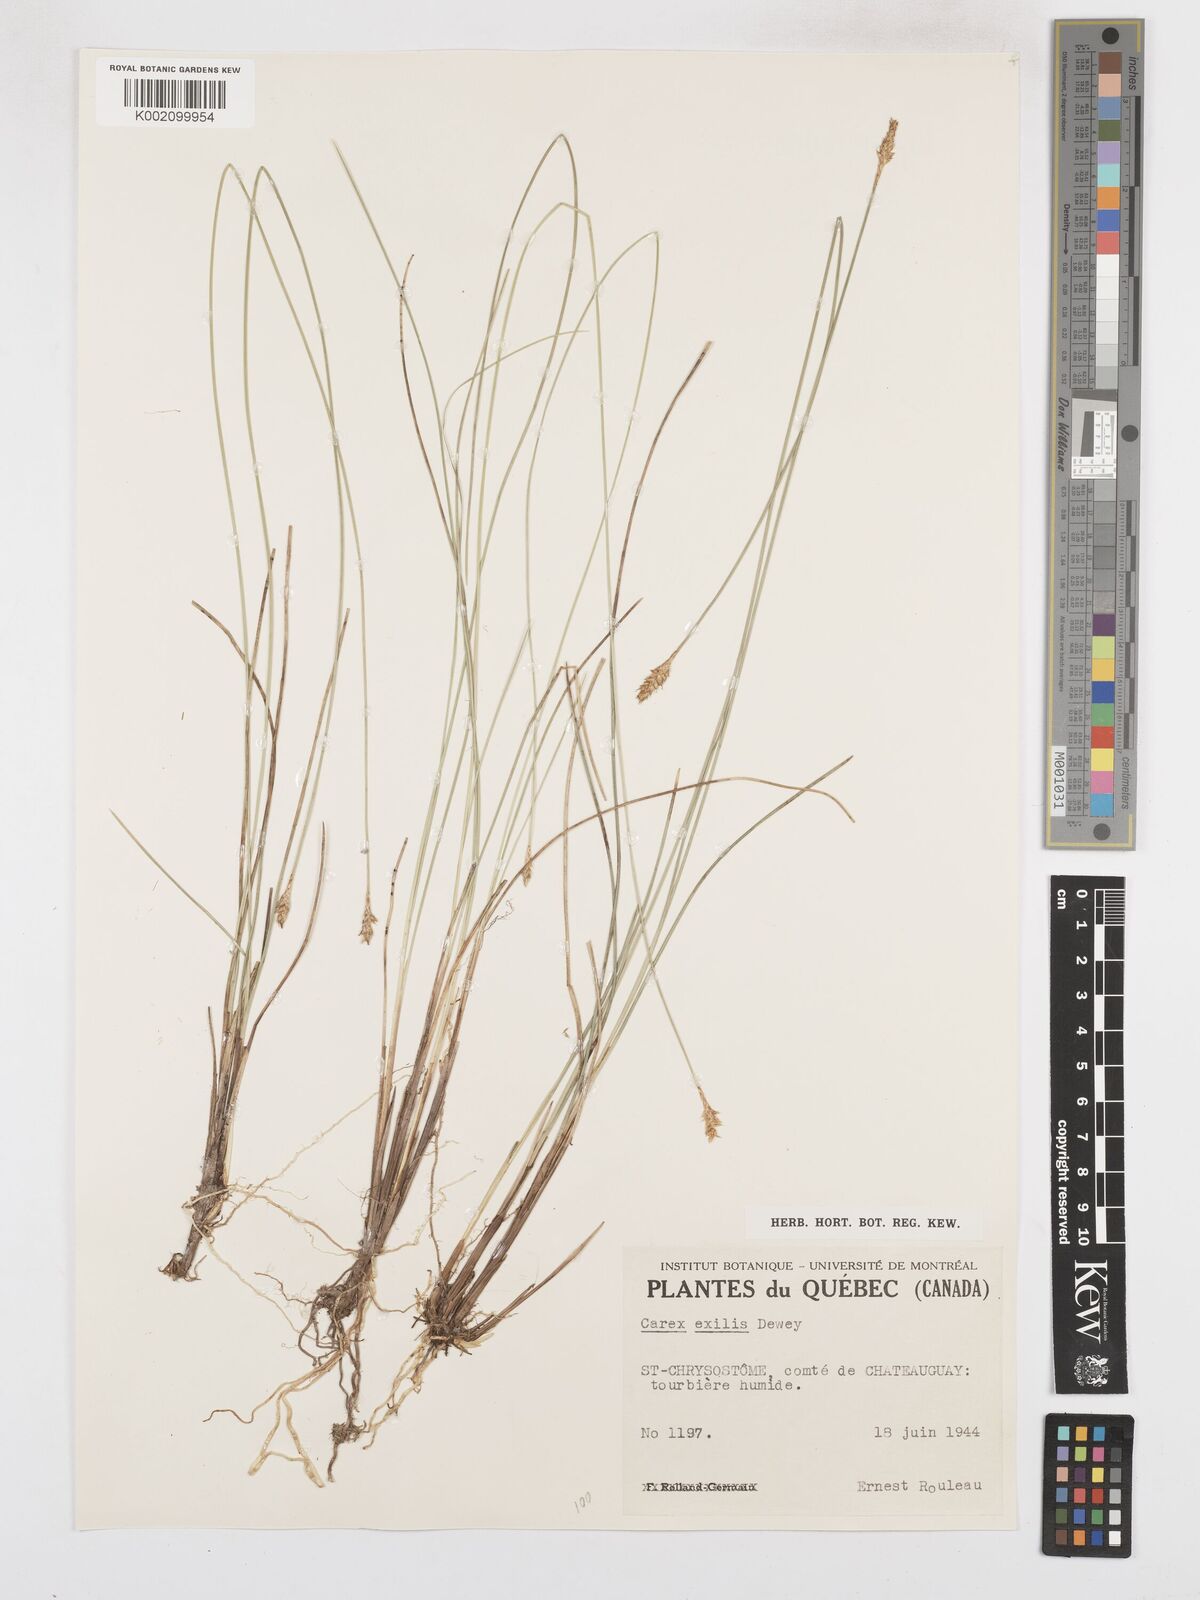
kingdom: Plantae
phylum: Tracheophyta
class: Liliopsida
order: Poales
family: Cyperaceae
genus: Carex
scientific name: Carex exilis
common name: Coastal sedge
